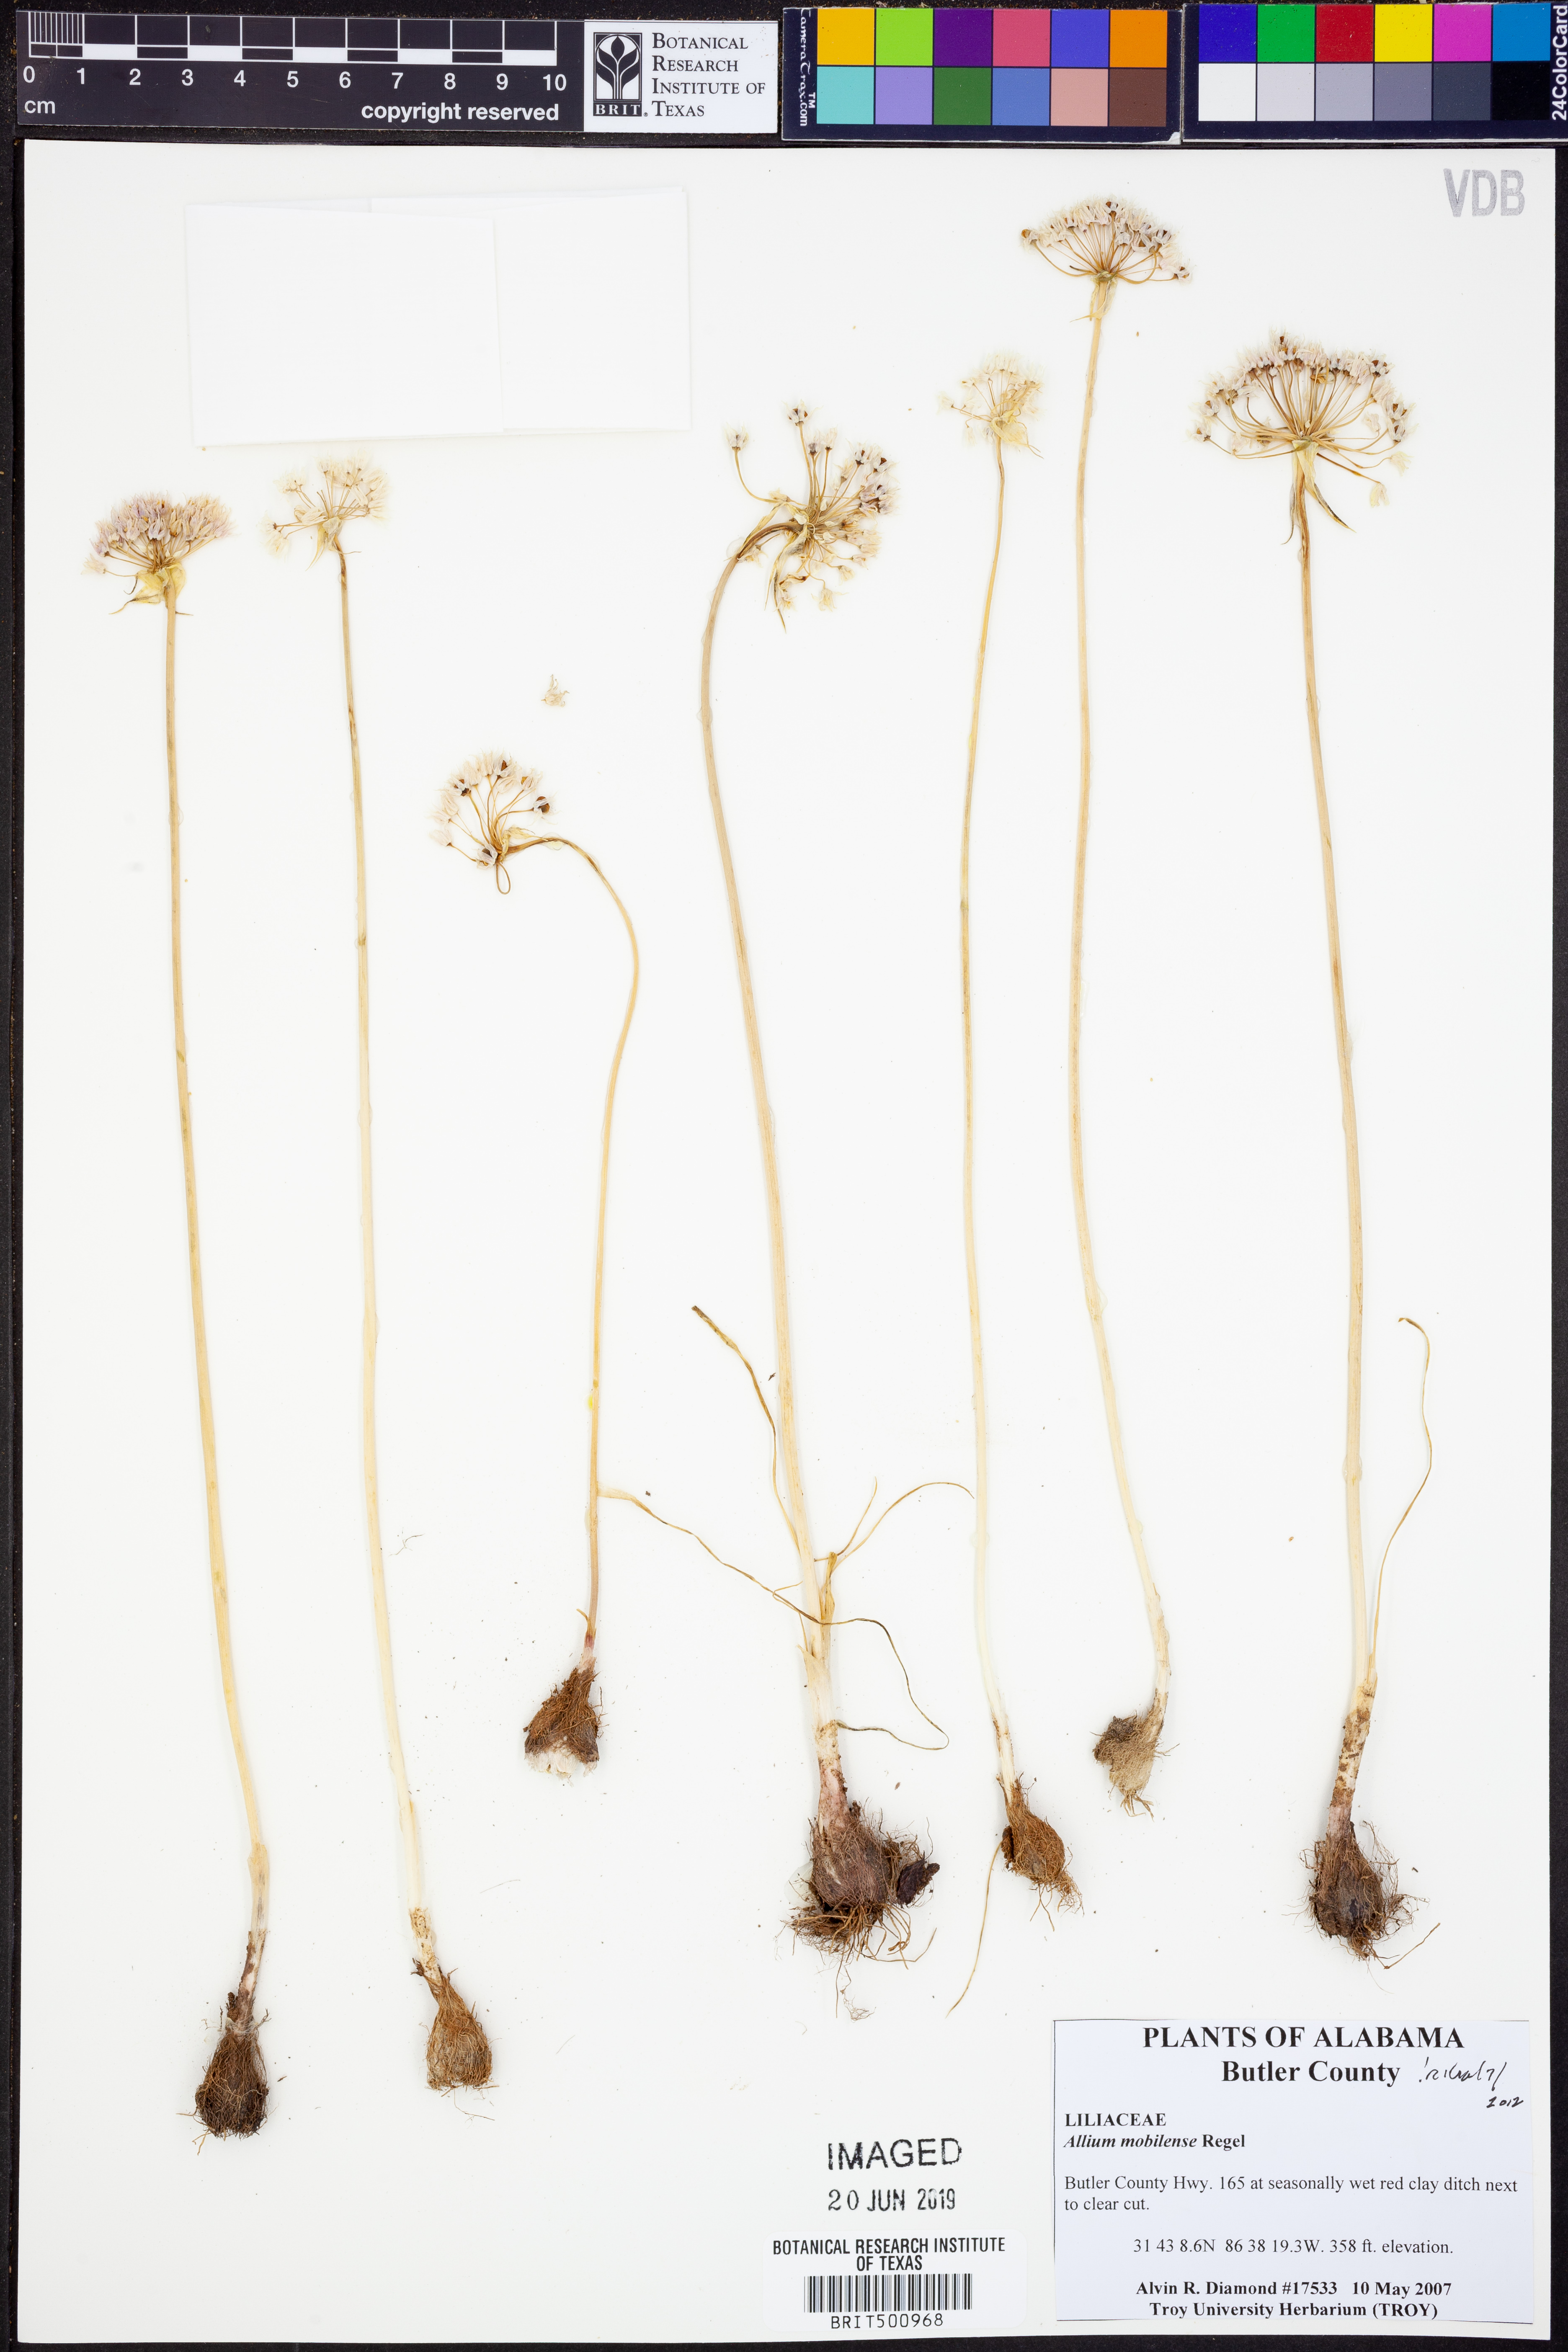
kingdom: Plantae
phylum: Tracheophyta
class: Liliopsida
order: Asparagales
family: Amaryllidaceae
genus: Allium
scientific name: Allium canadense
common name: Meadow garlic
